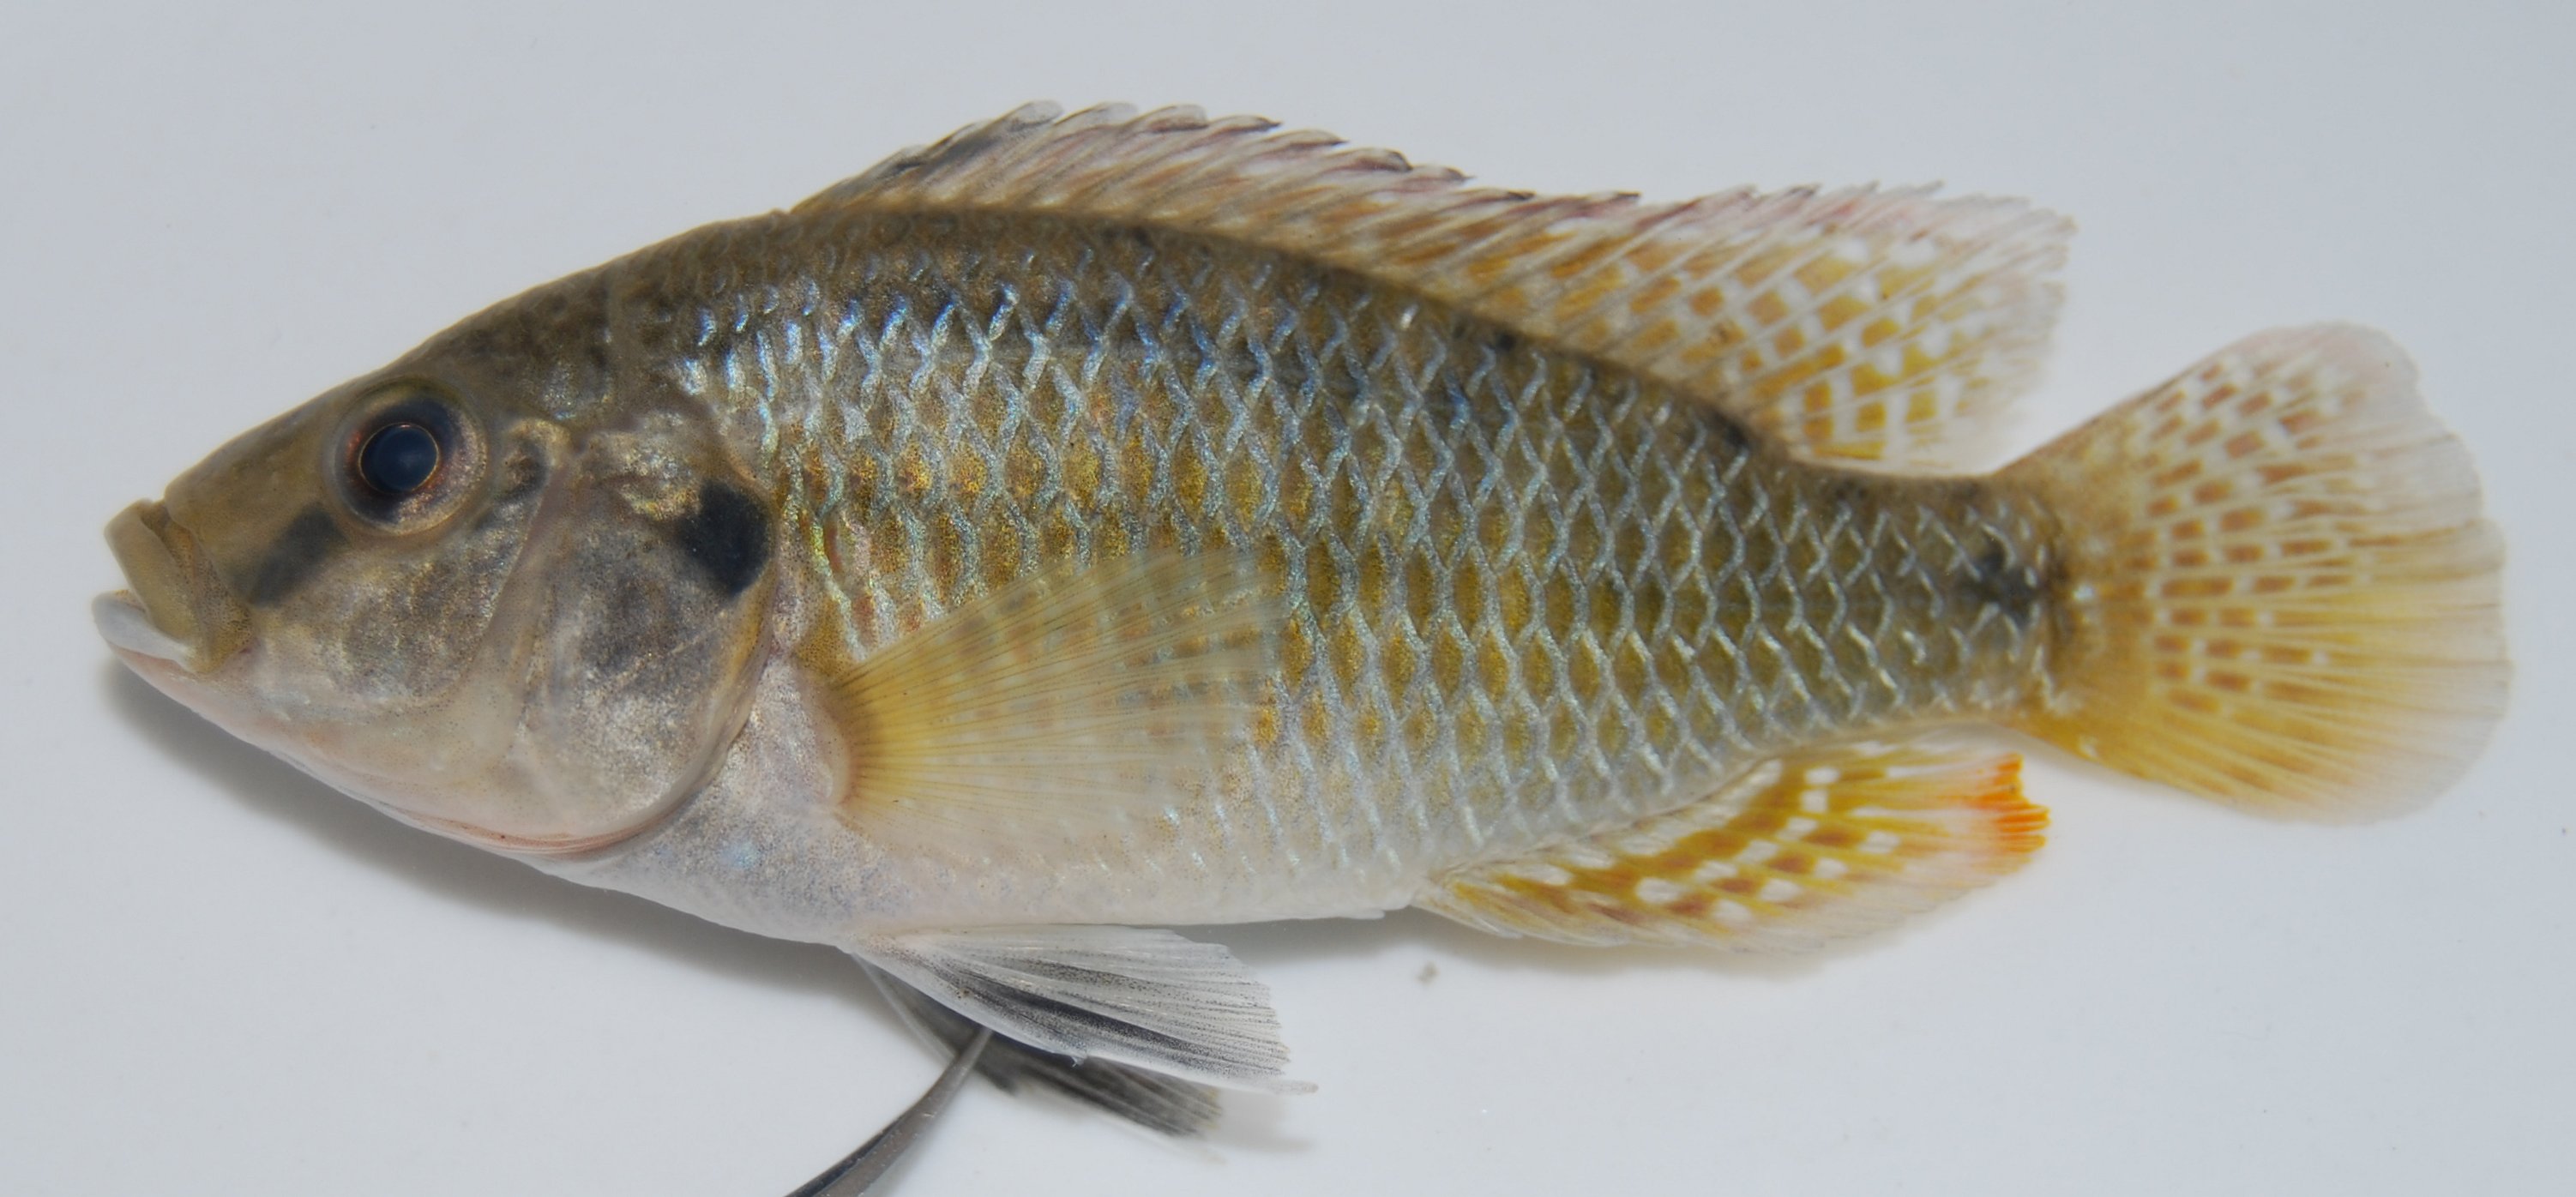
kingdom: Animalia
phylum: Chordata
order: Perciformes
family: Cichlidae
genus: Pseudocrenilabrus
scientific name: Pseudocrenilabrus philander
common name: Southern mouthbrooder
